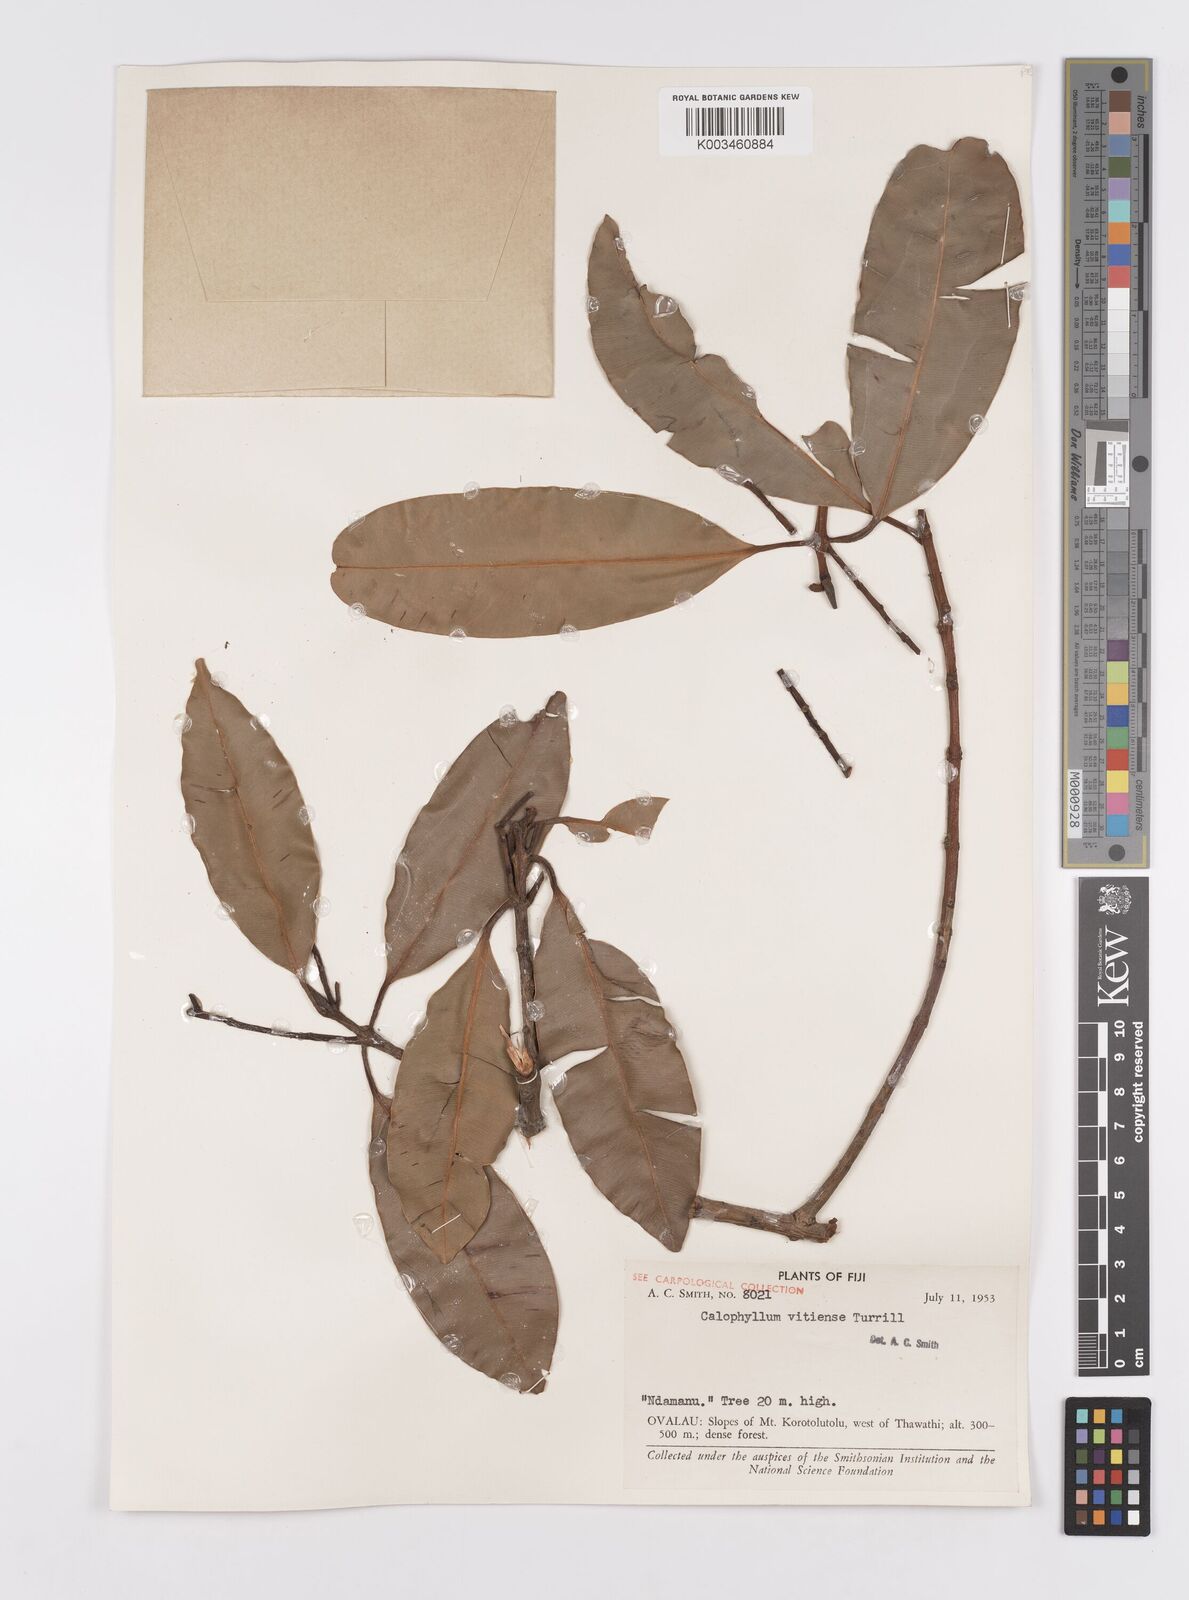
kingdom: Plantae
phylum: Tracheophyta
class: Magnoliopsida
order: Malpighiales
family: Calophyllaceae
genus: Calophyllum
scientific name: Calophyllum vitiense
